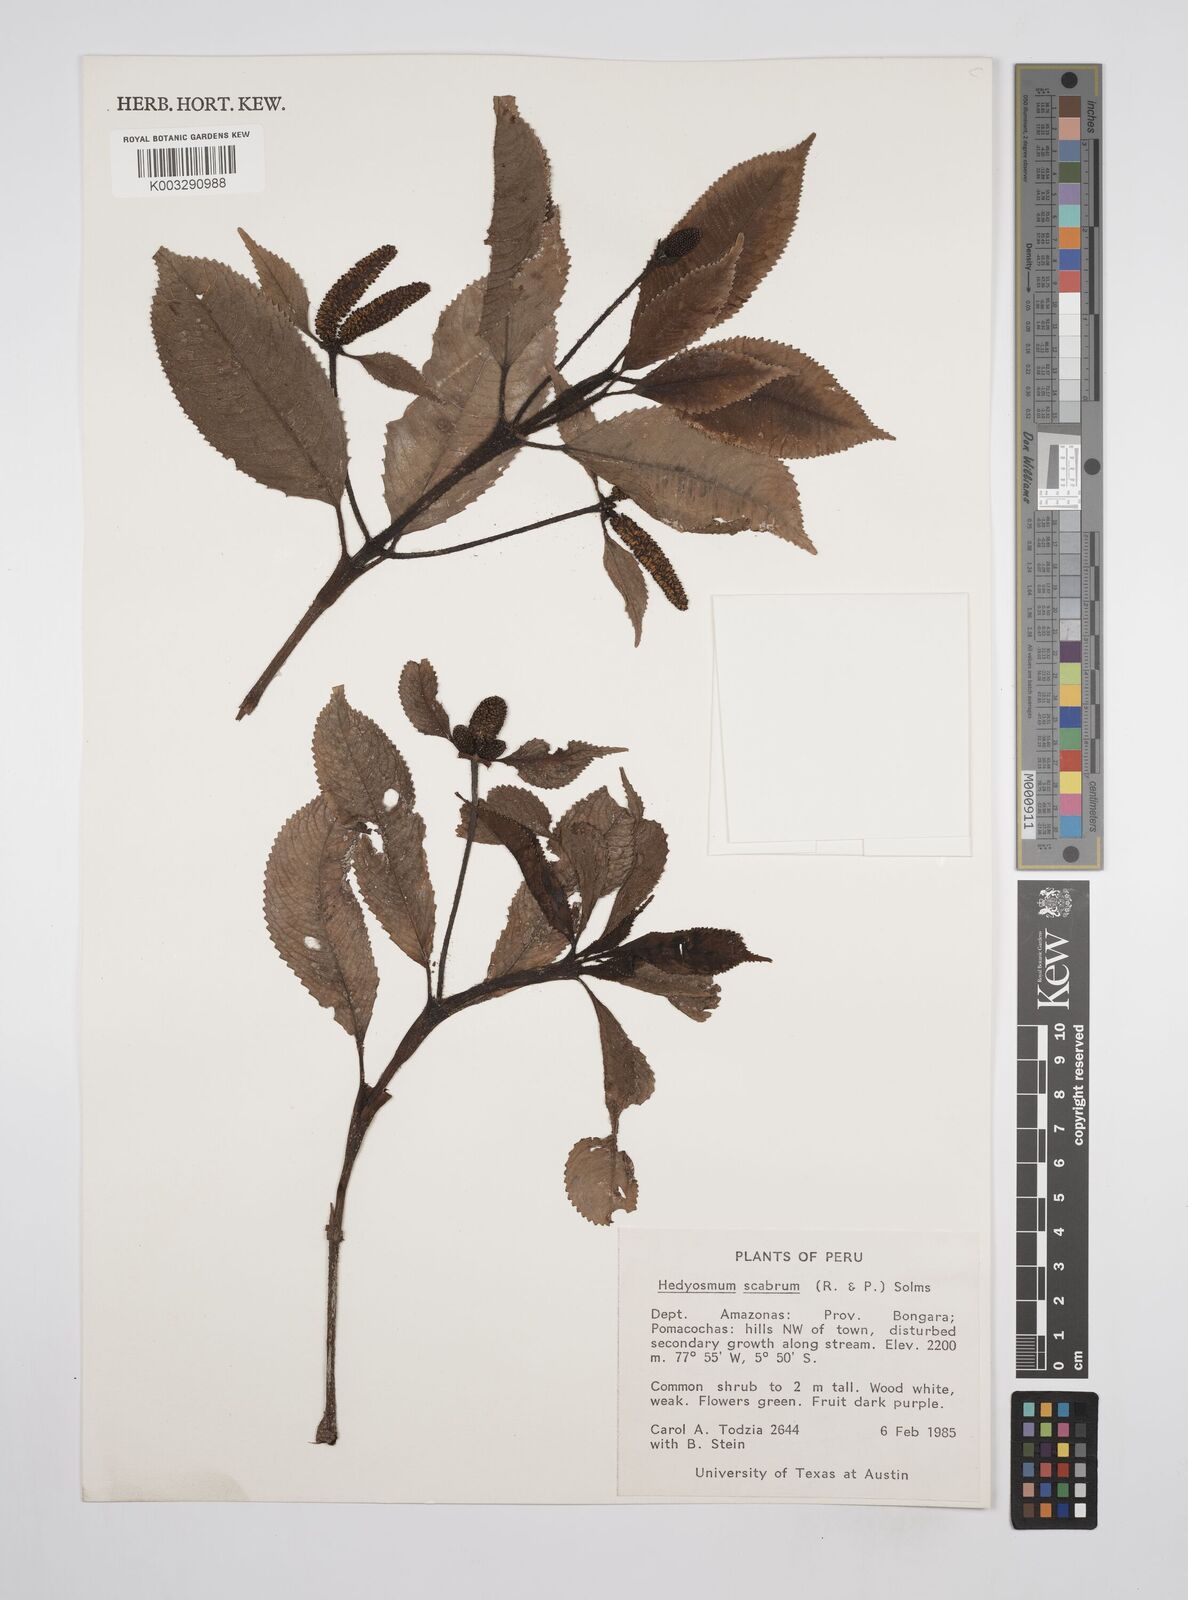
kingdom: Plantae
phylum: Tracheophyta
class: Magnoliopsida
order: Chloranthales
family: Chloranthaceae
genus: Hedyosmum
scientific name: Hedyosmum scabrum
